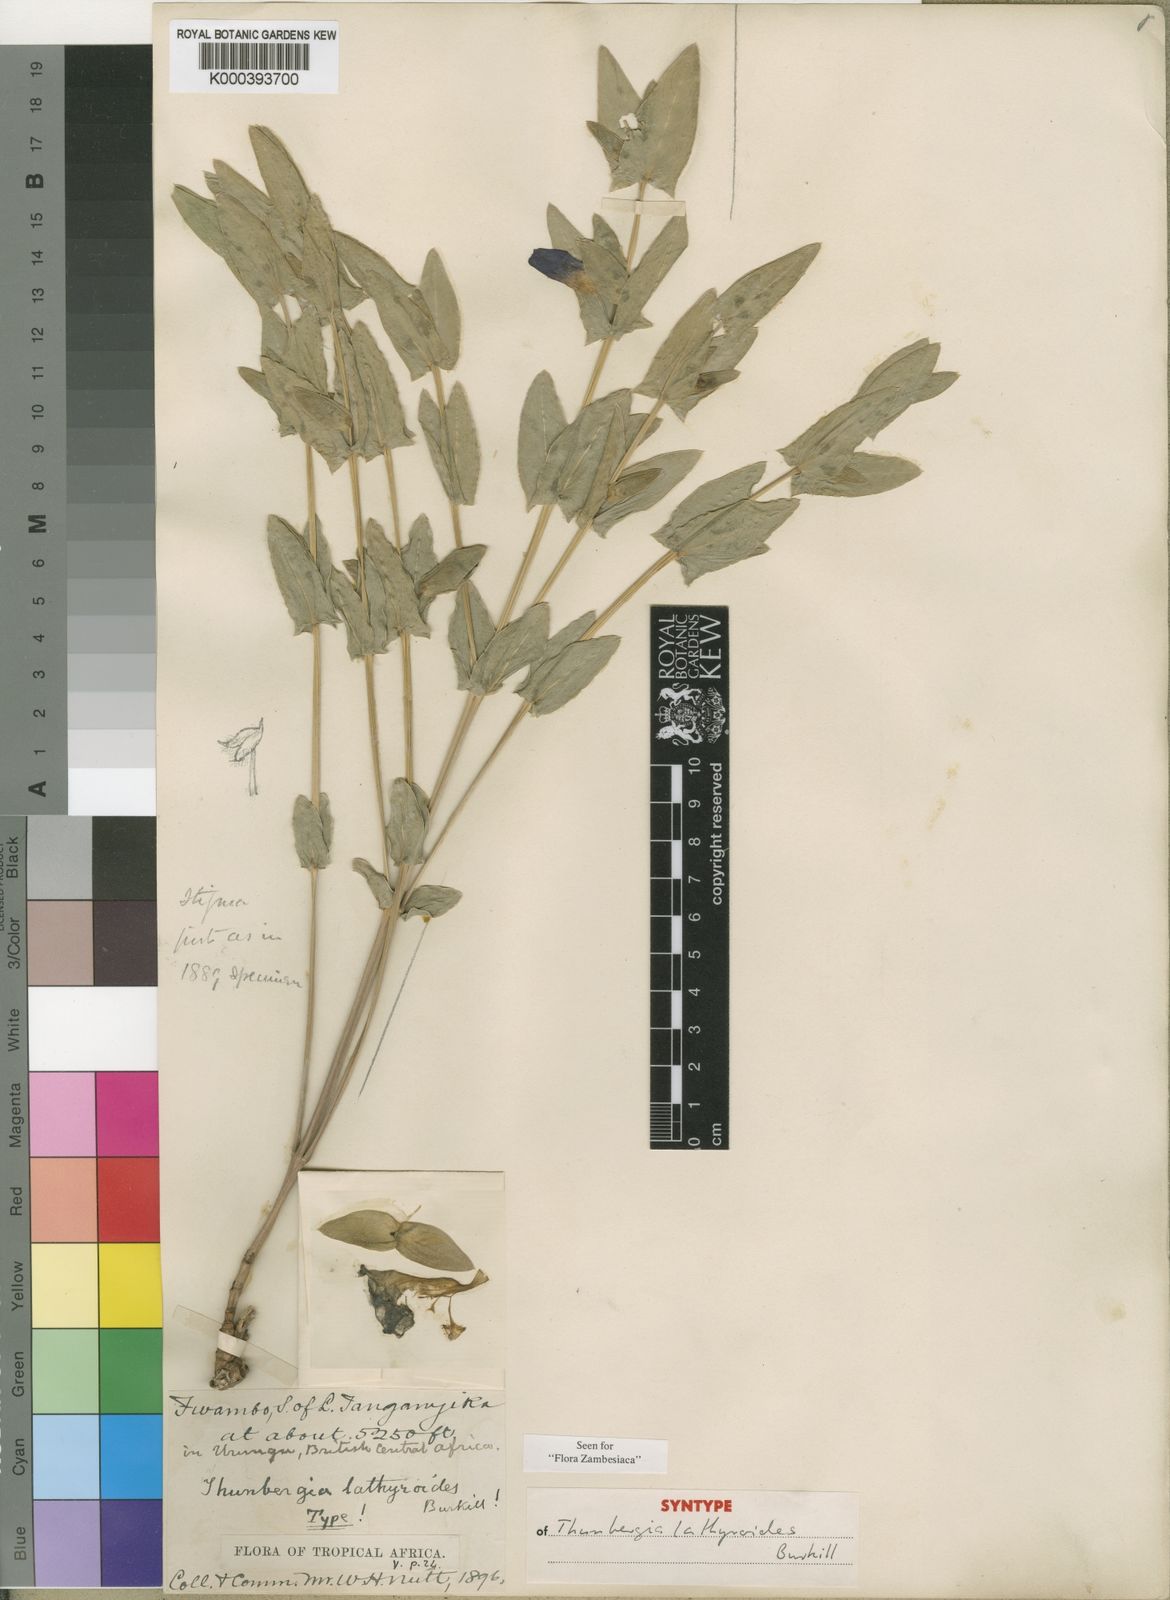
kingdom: Plantae
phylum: Tracheophyta
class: Magnoliopsida
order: Lamiales
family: Acanthaceae
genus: Thunbergia
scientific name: Thunbergia lathyroides
